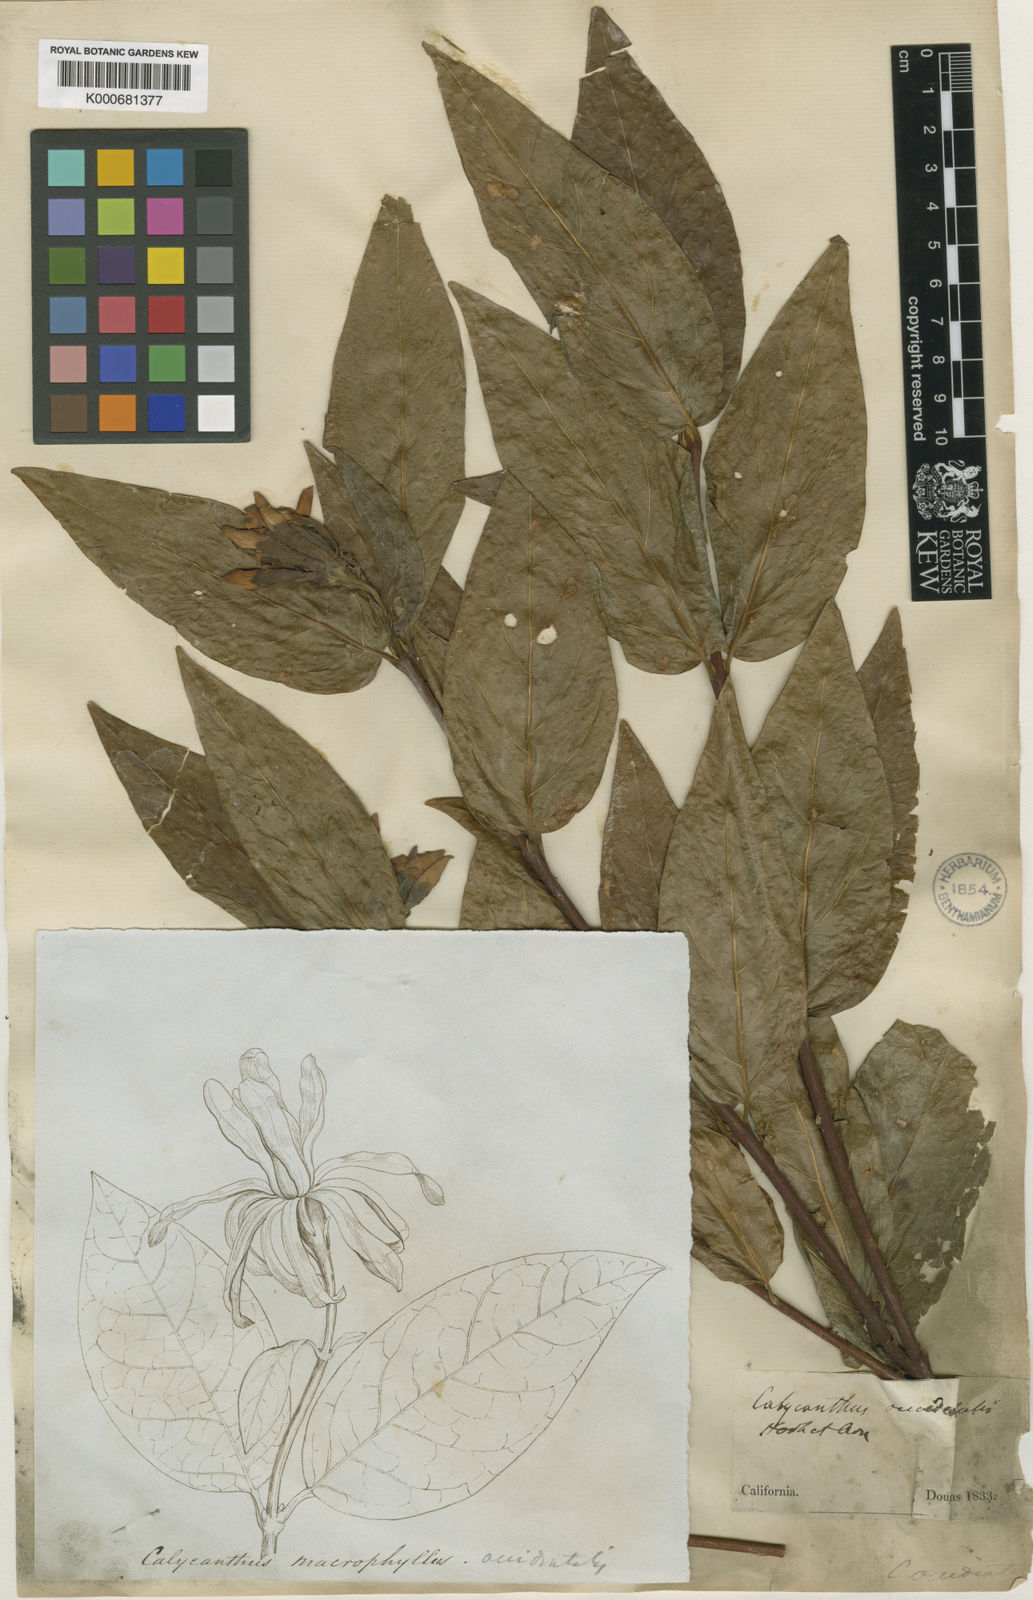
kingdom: Plantae
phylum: Tracheophyta
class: Magnoliopsida
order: Laurales
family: Calycanthaceae
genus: Calycanthus
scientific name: Calycanthus occidentalis
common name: California spicebush
